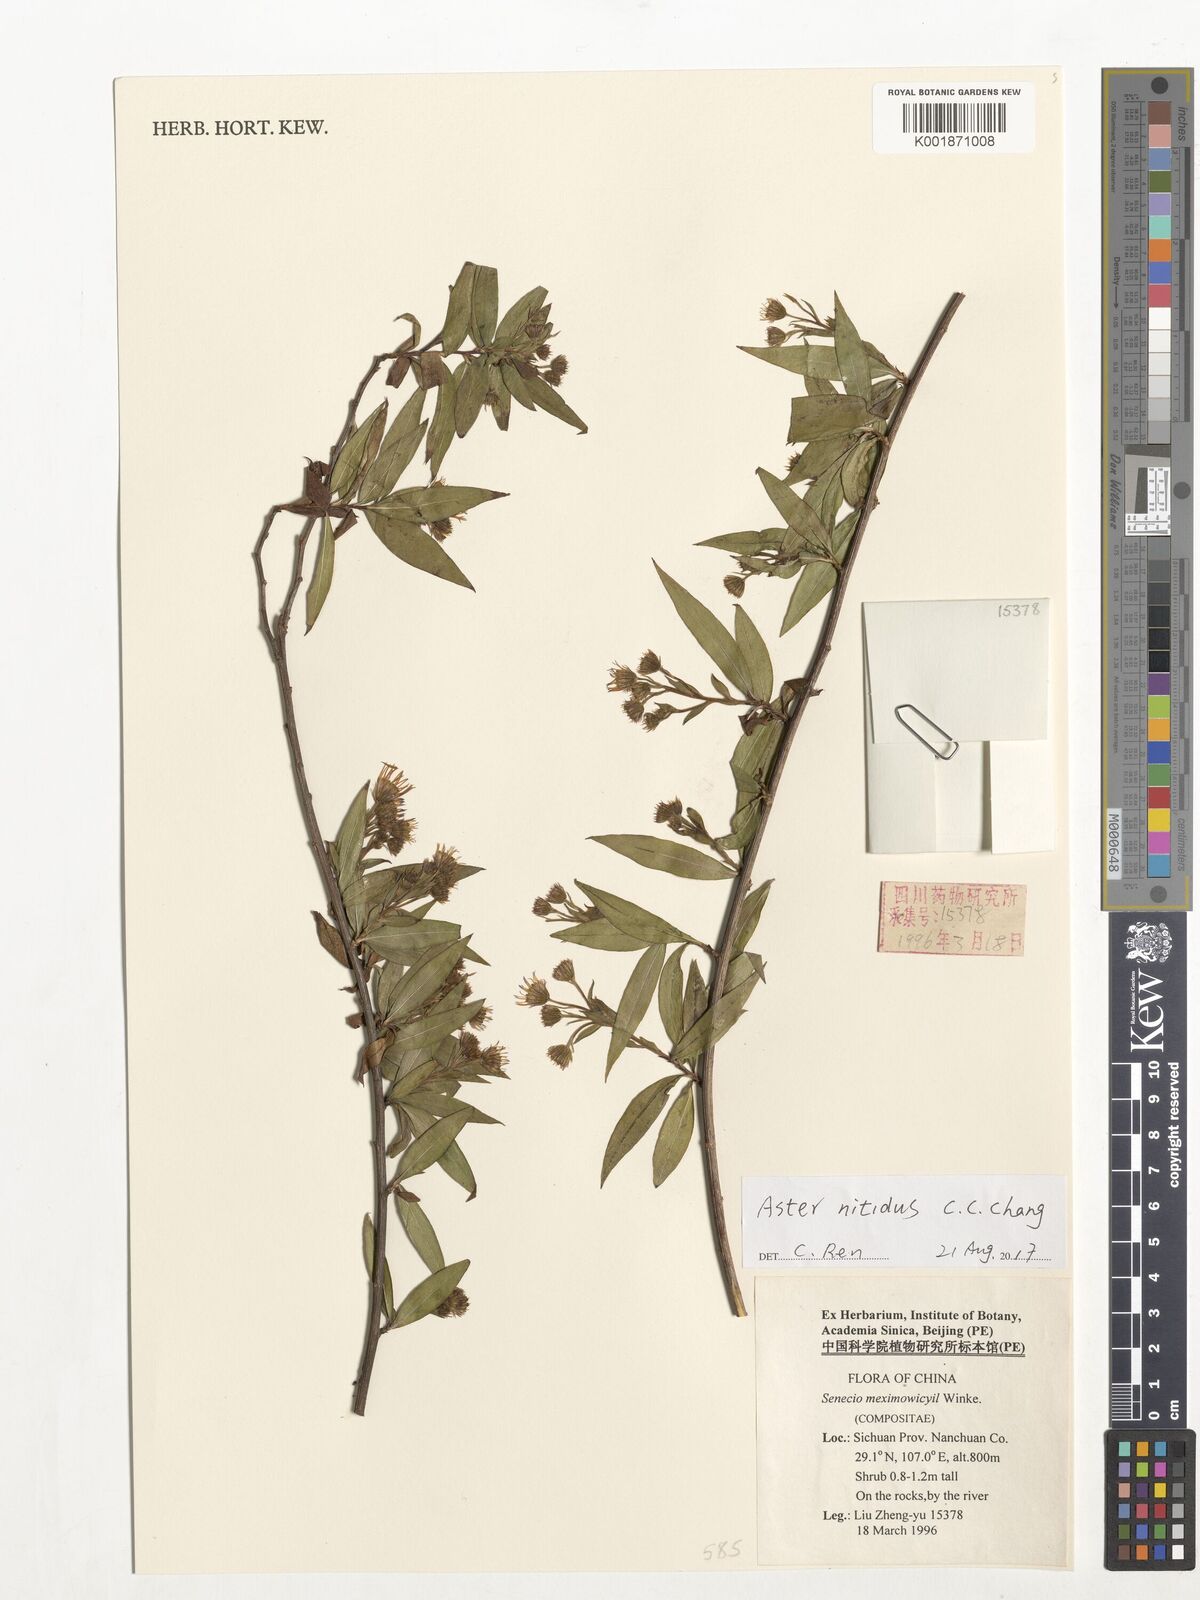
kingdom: Plantae
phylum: Tracheophyta
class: Magnoliopsida
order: Asterales
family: Asteraceae
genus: Yonglingia
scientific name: Yonglingia nitidus
